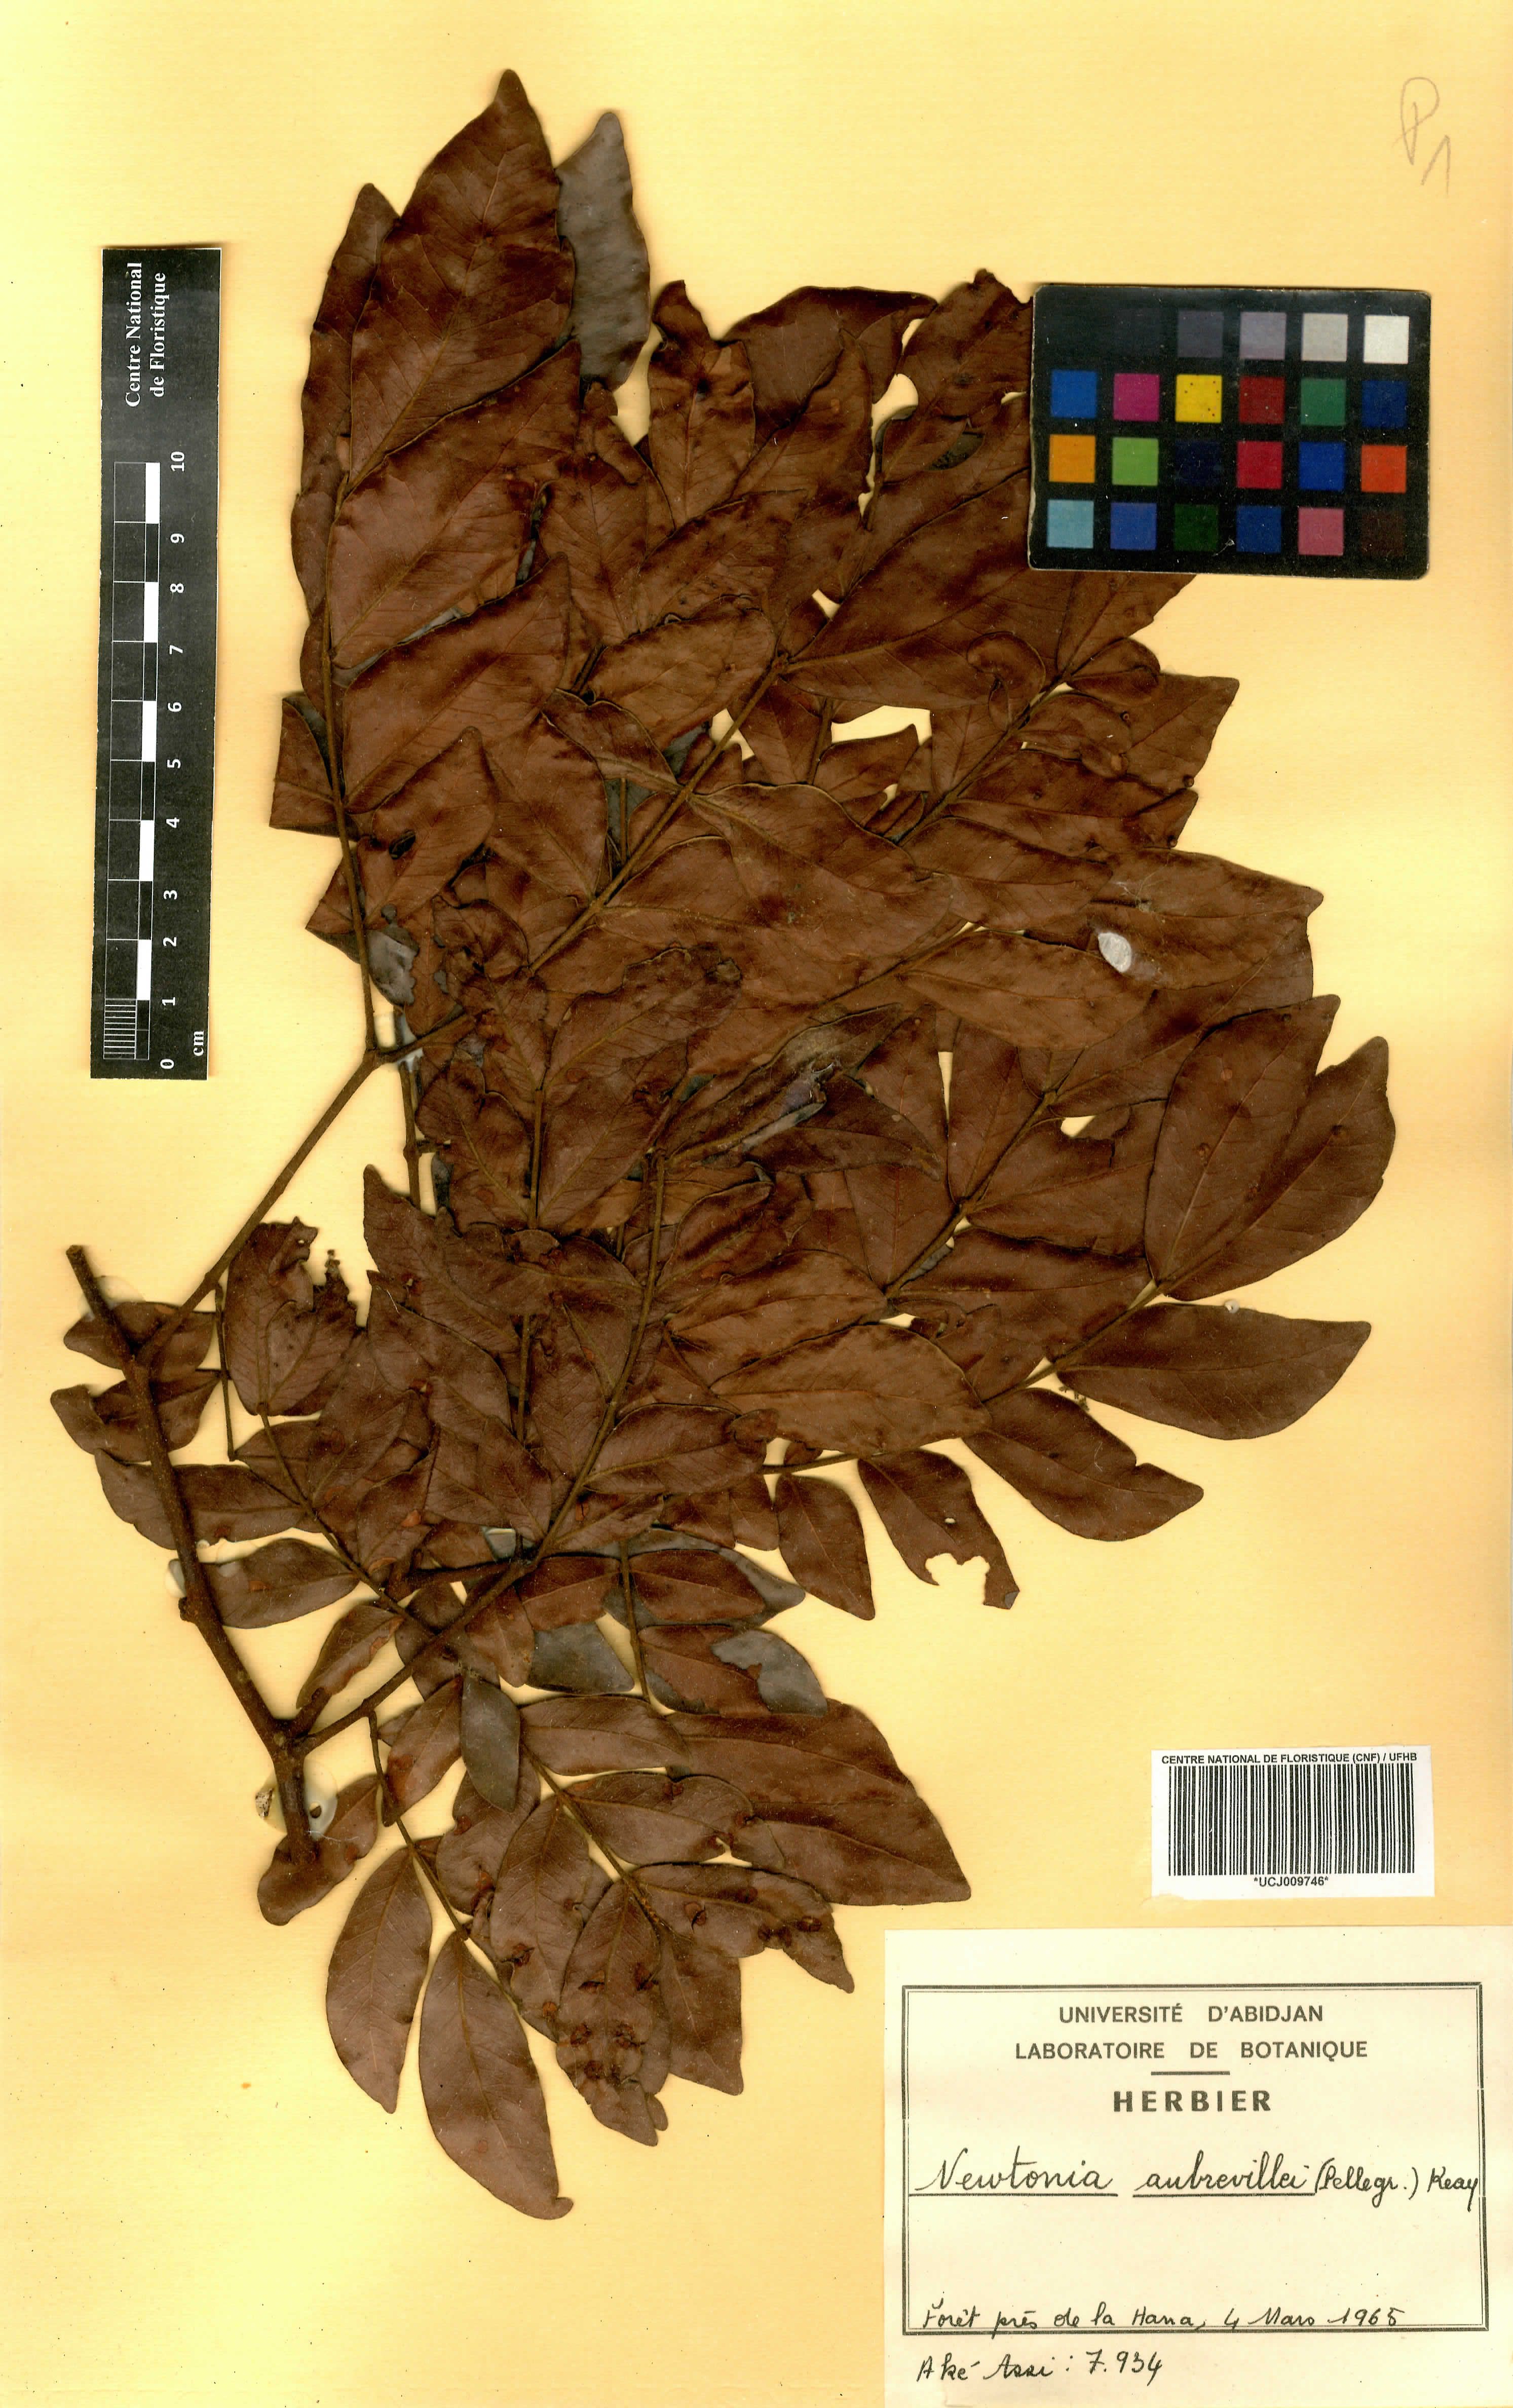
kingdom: Plantae
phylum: Tracheophyta
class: Magnoliopsida
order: Fabales
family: Fabaceae
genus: Newtonia
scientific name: Newtonia aubrevillei
